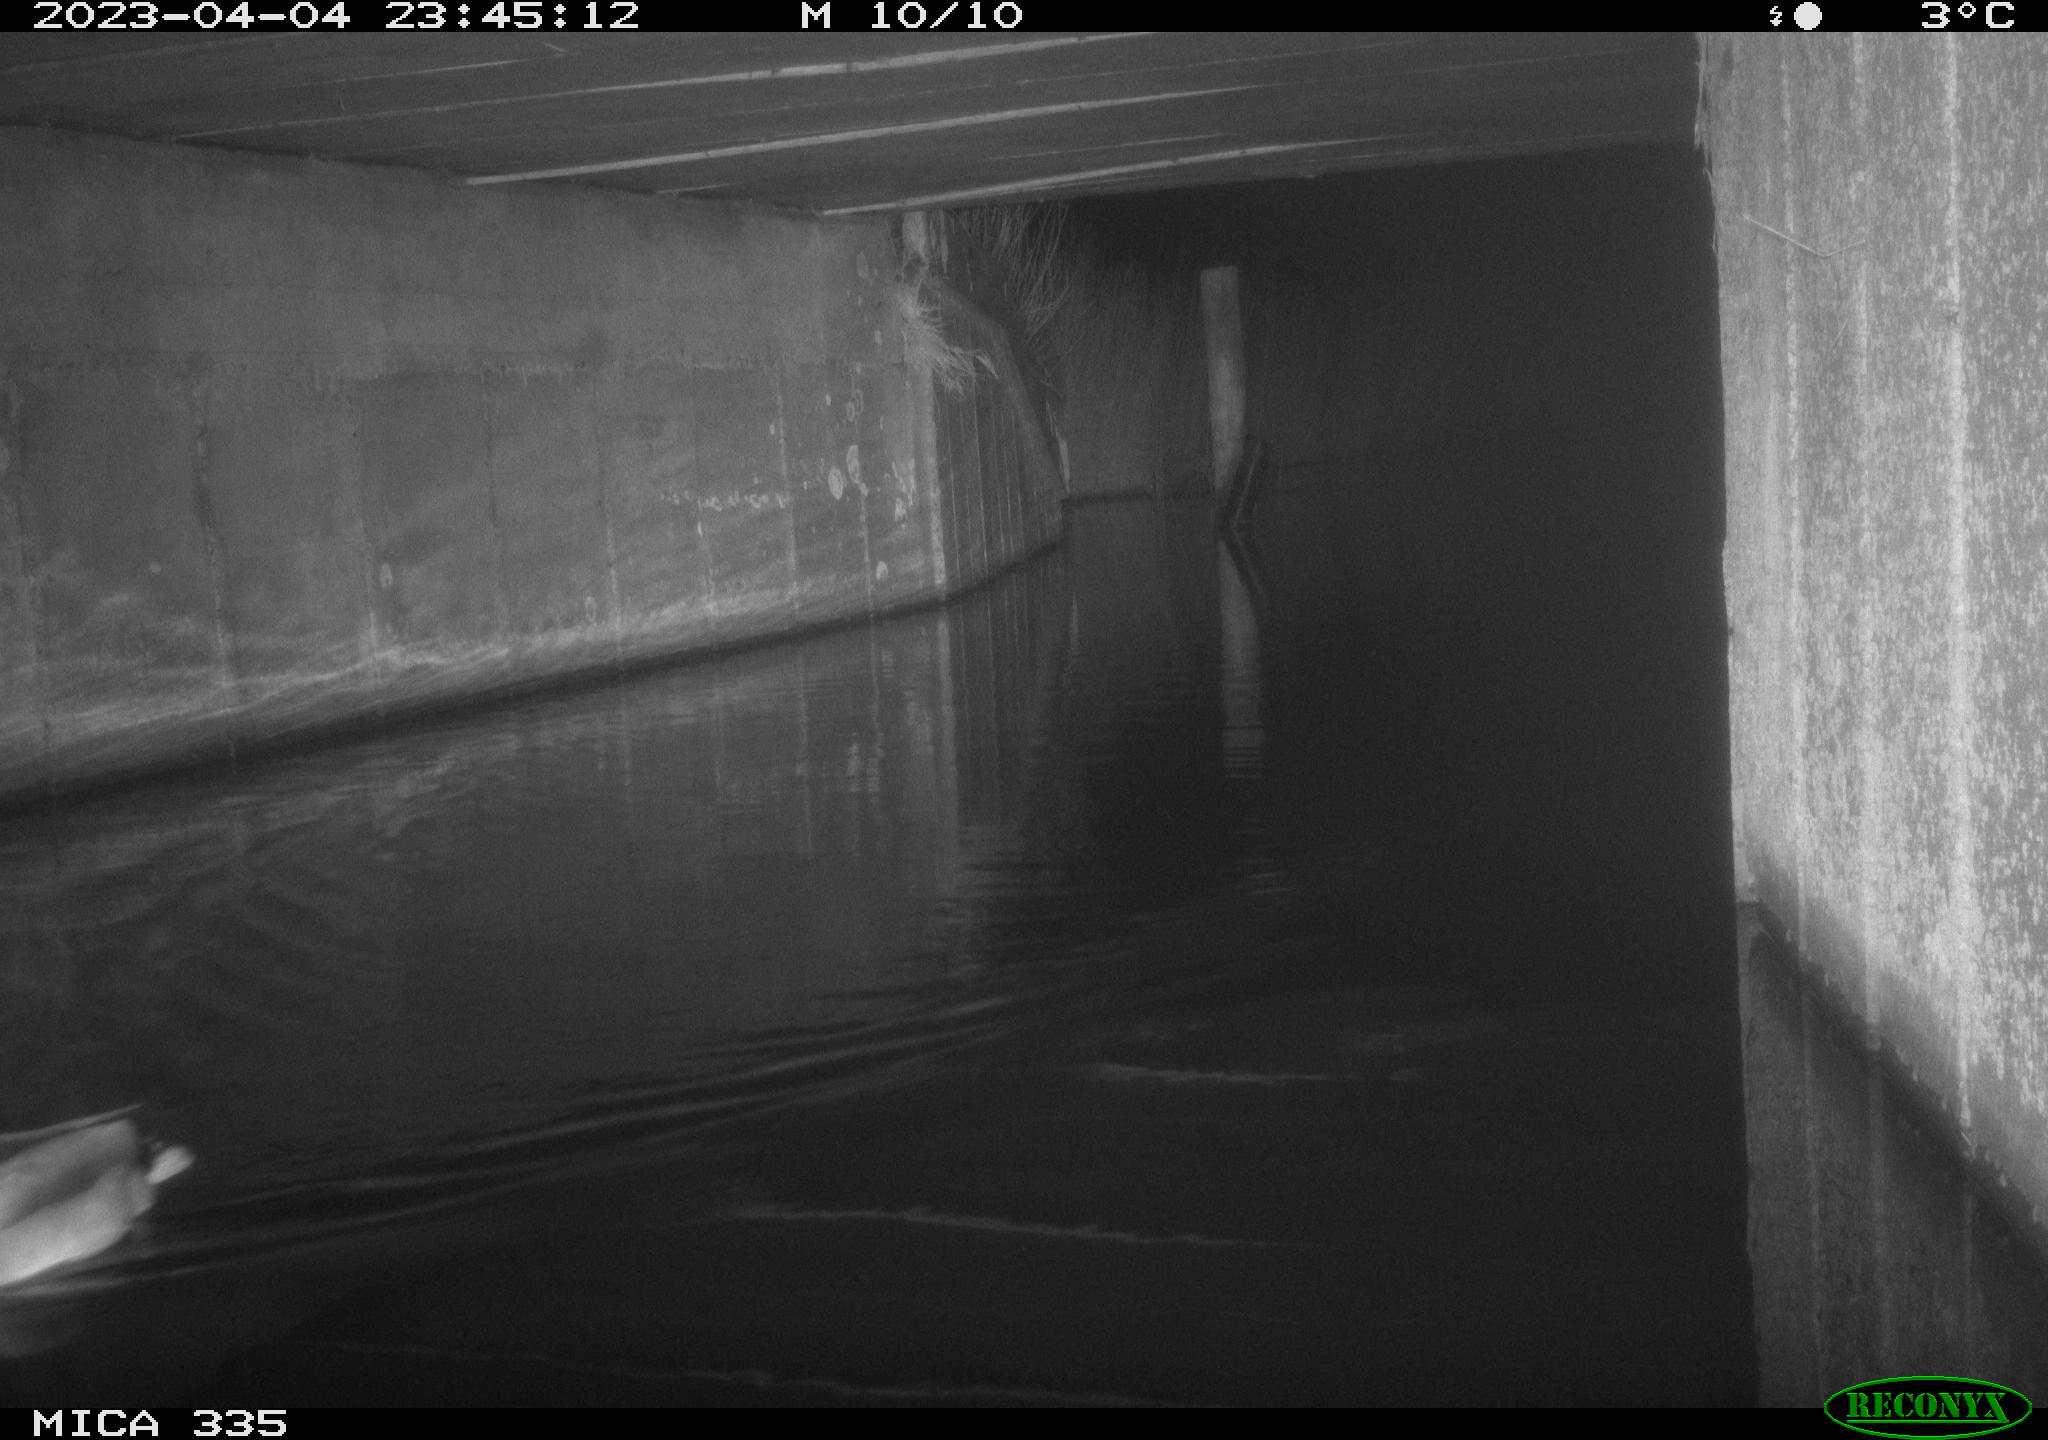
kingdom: Animalia
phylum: Chordata
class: Aves
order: Anseriformes
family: Anatidae
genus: Anas
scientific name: Anas
